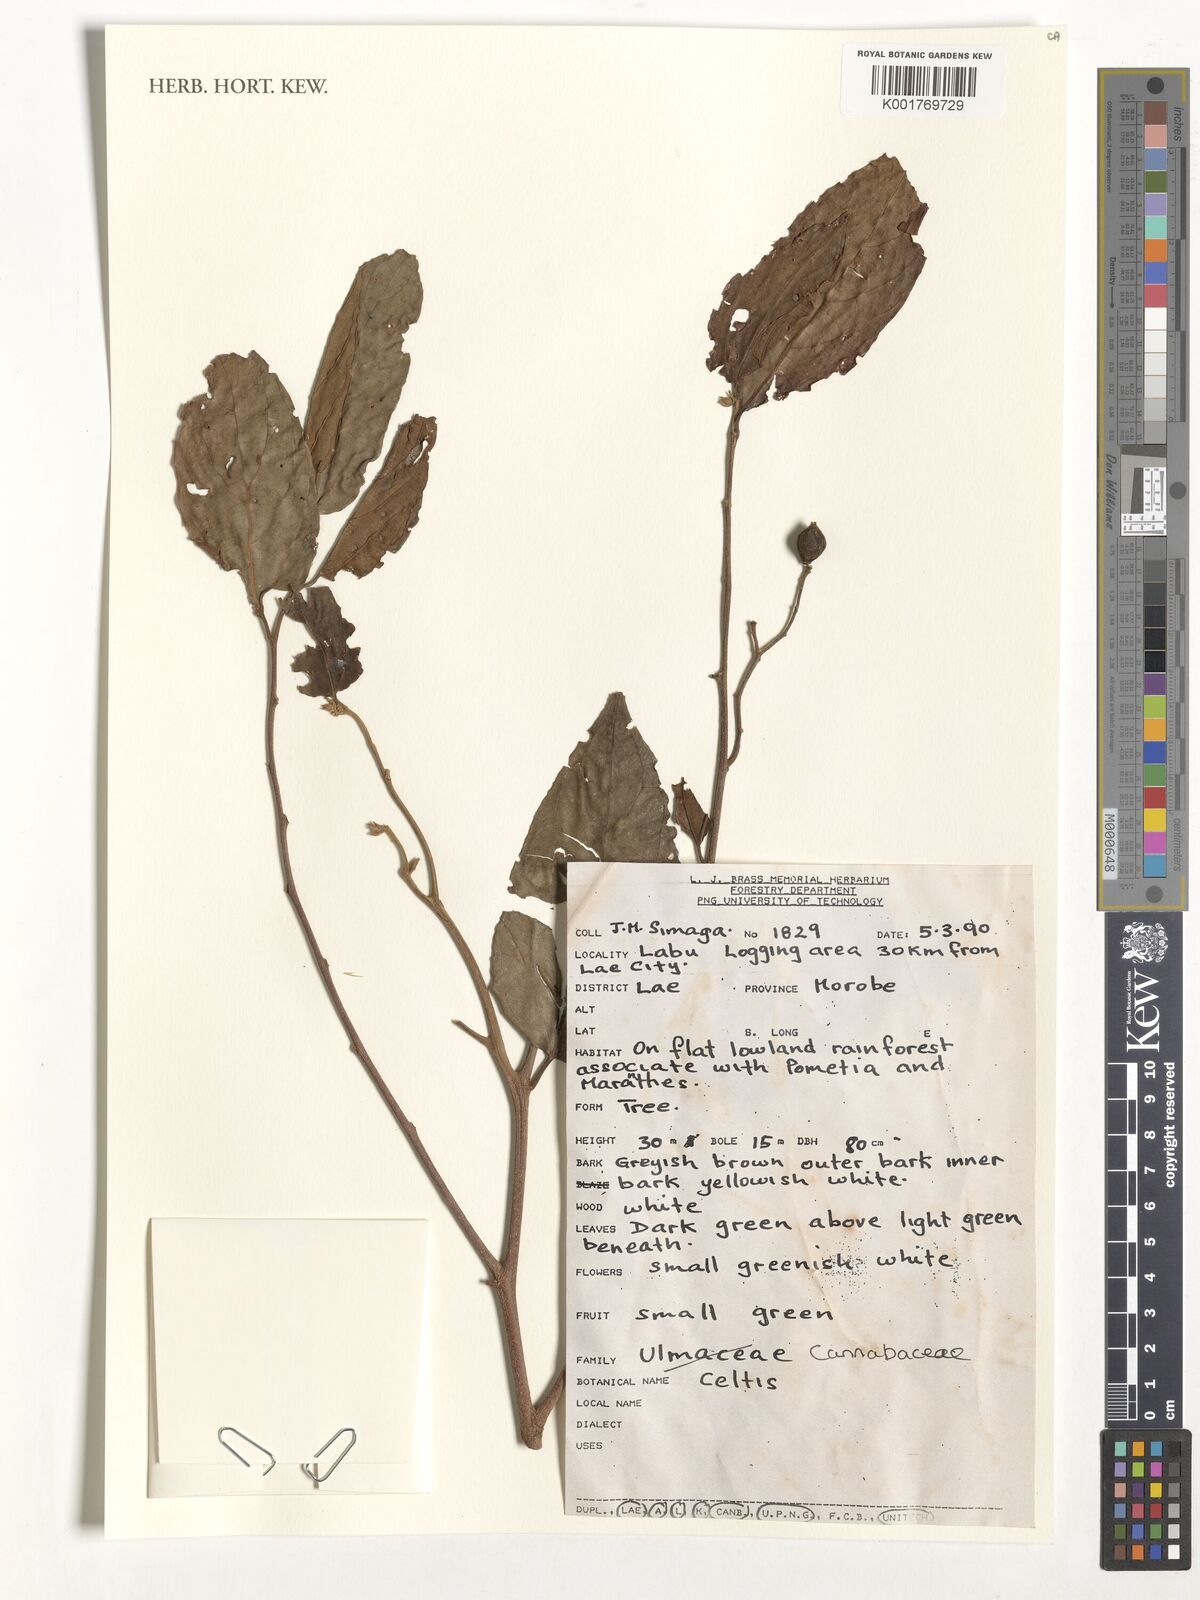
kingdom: Plantae
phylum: Tracheophyta
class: Magnoliopsida
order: Rosales
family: Cannabaceae
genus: Celtis
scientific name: Celtis
